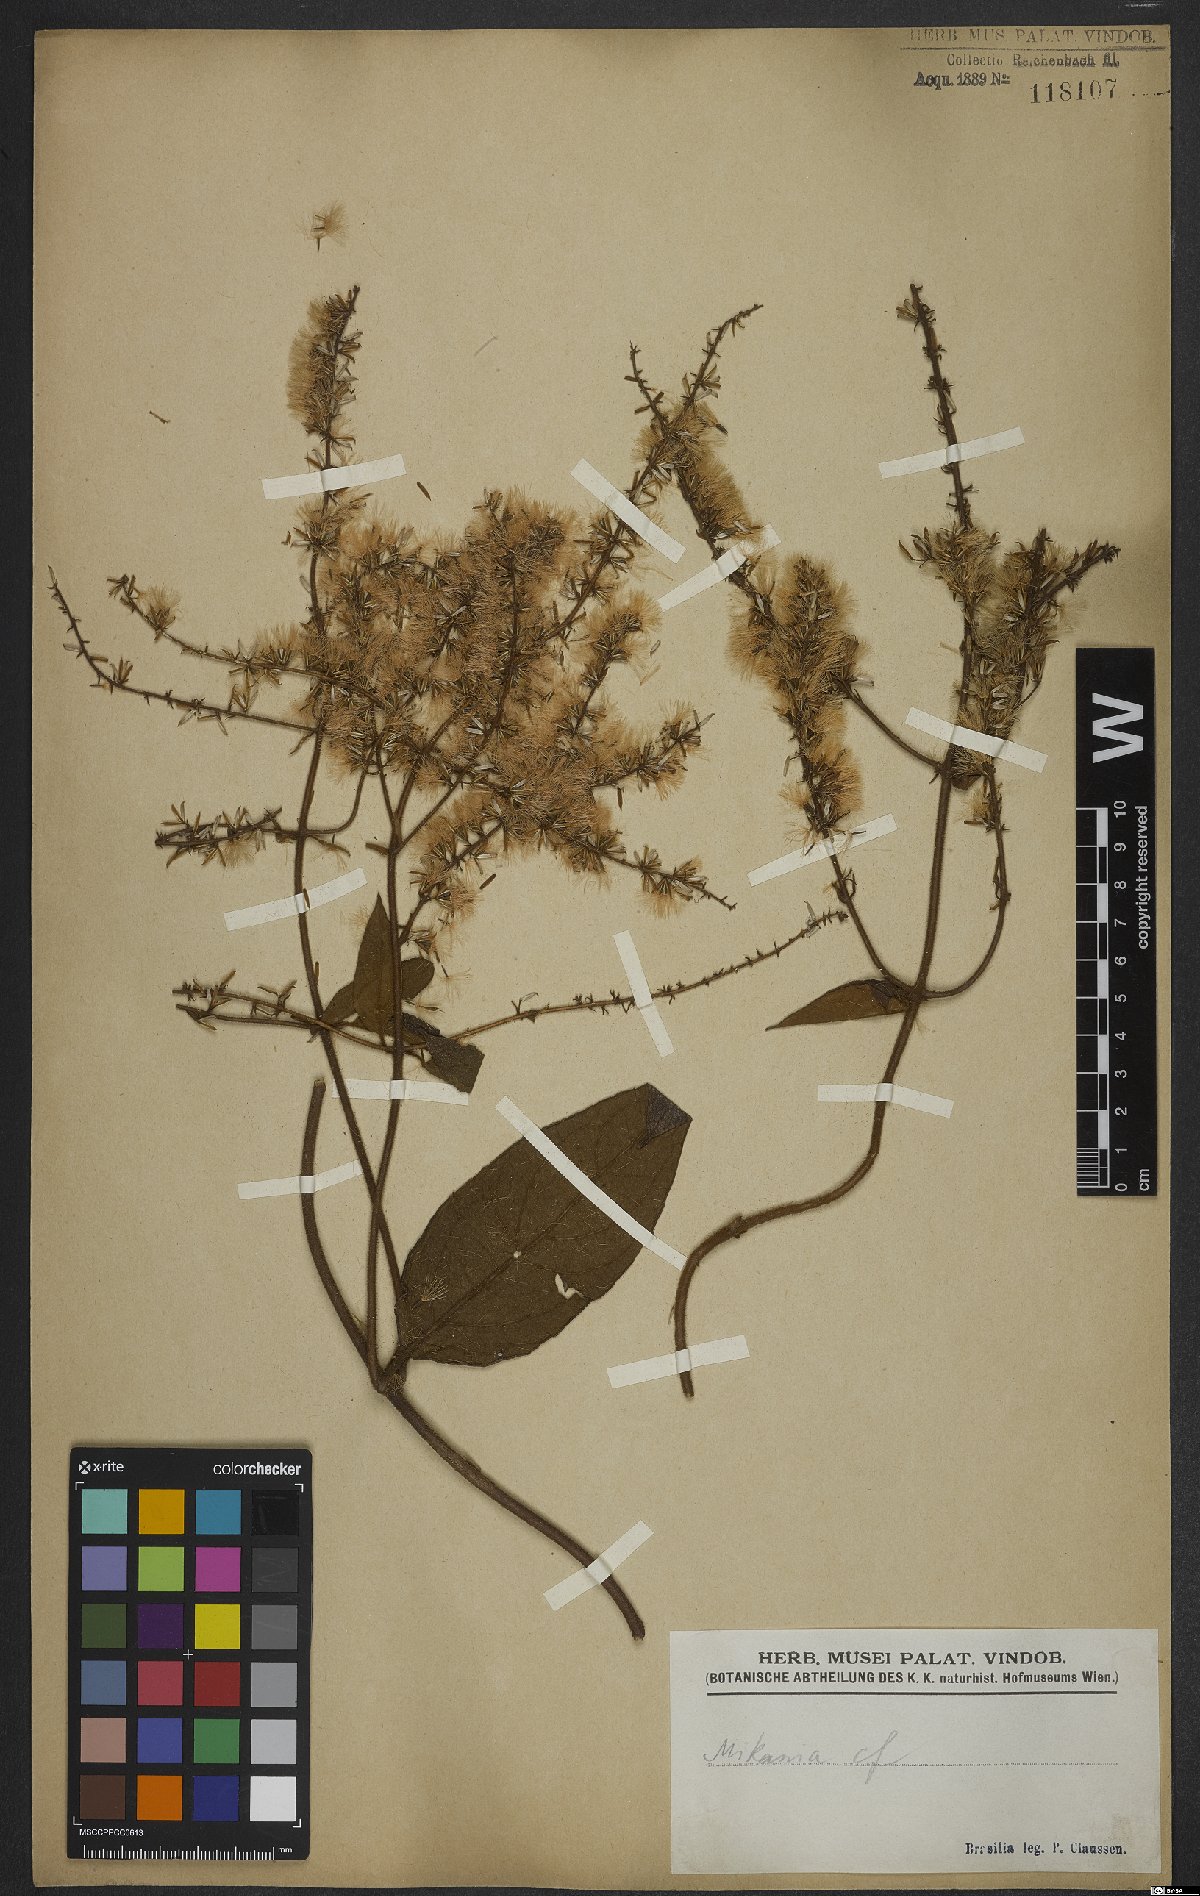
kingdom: Plantae
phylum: Tracheophyta
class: Magnoliopsida
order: Asterales
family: Asteraceae
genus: Mikania
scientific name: Mikania
